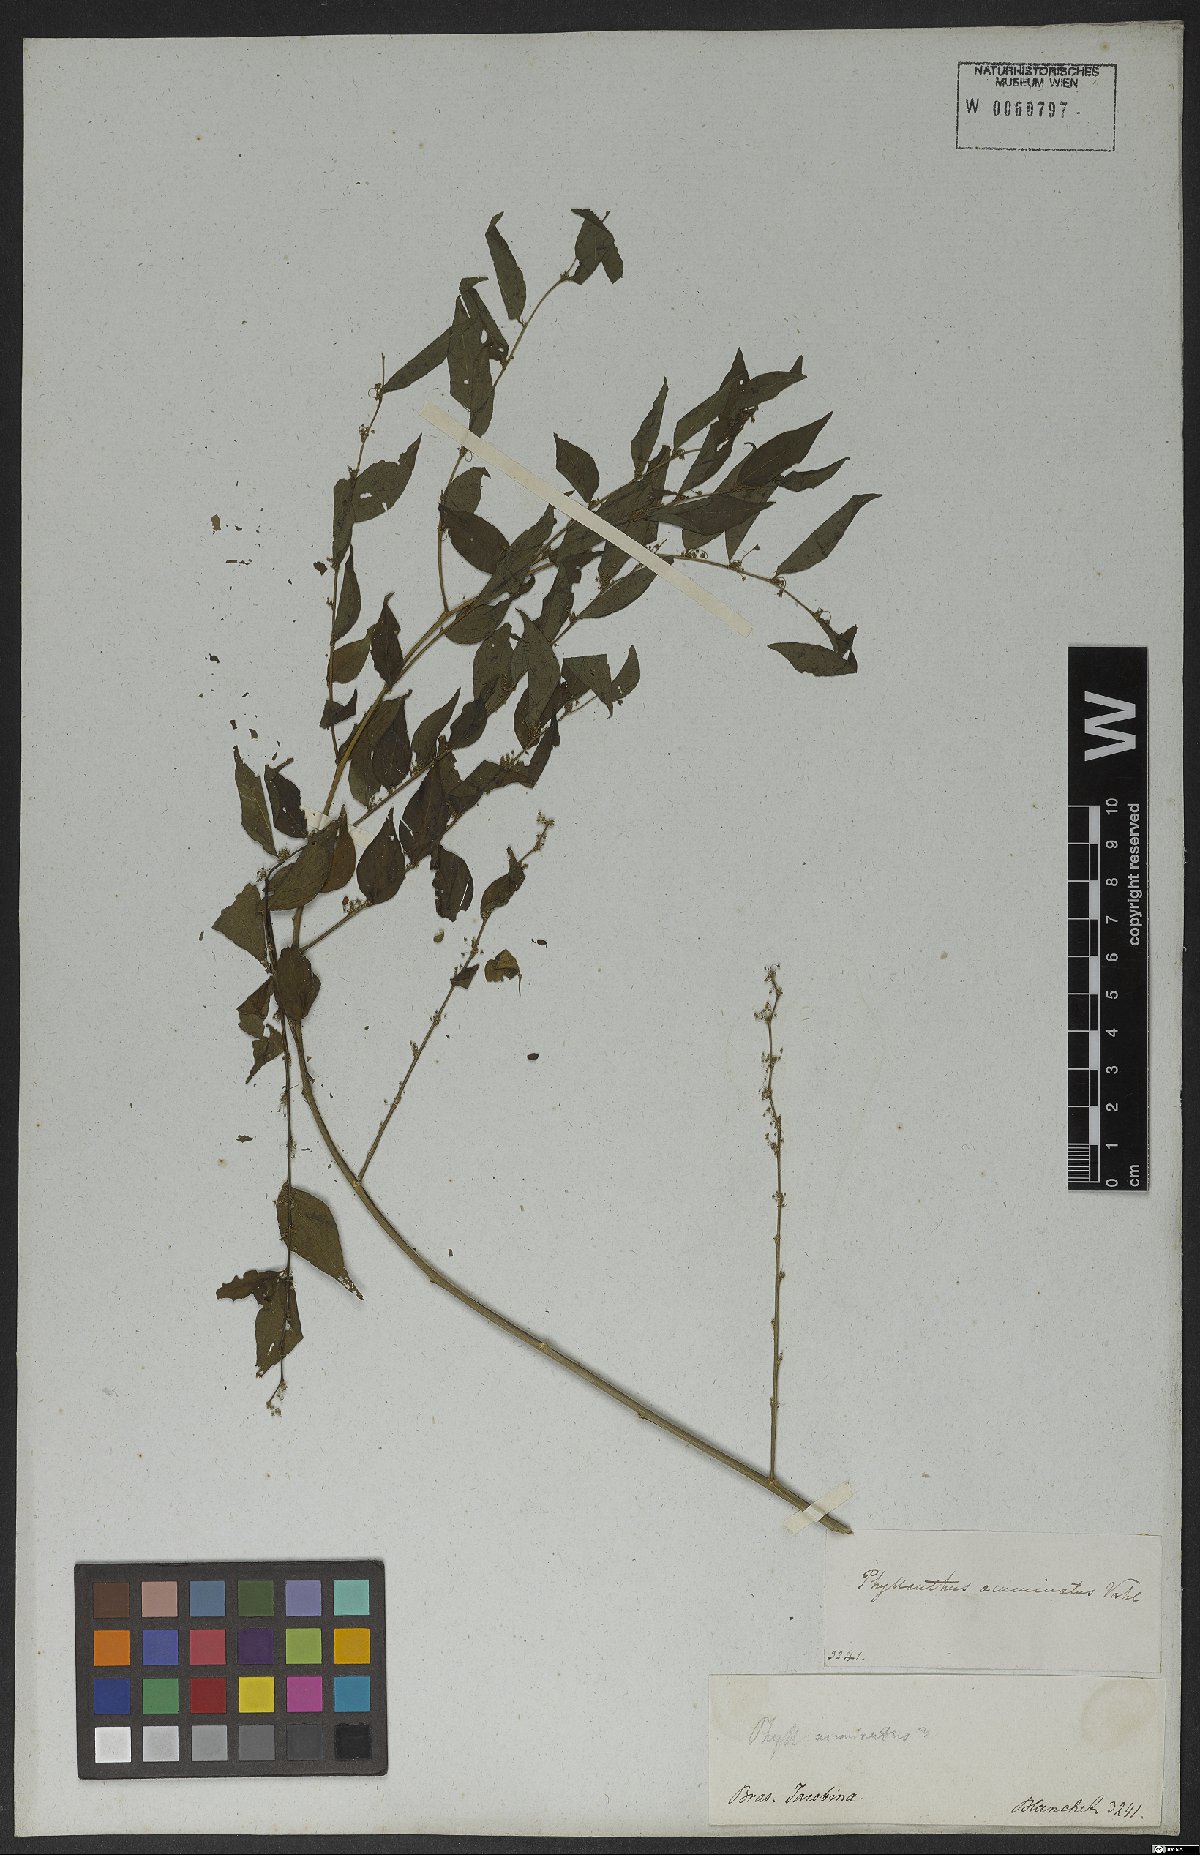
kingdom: Plantae
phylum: Tracheophyta
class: Magnoliopsida
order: Malpighiales
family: Phyllanthaceae
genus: Phyllanthus
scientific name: Phyllanthus acuminatus
